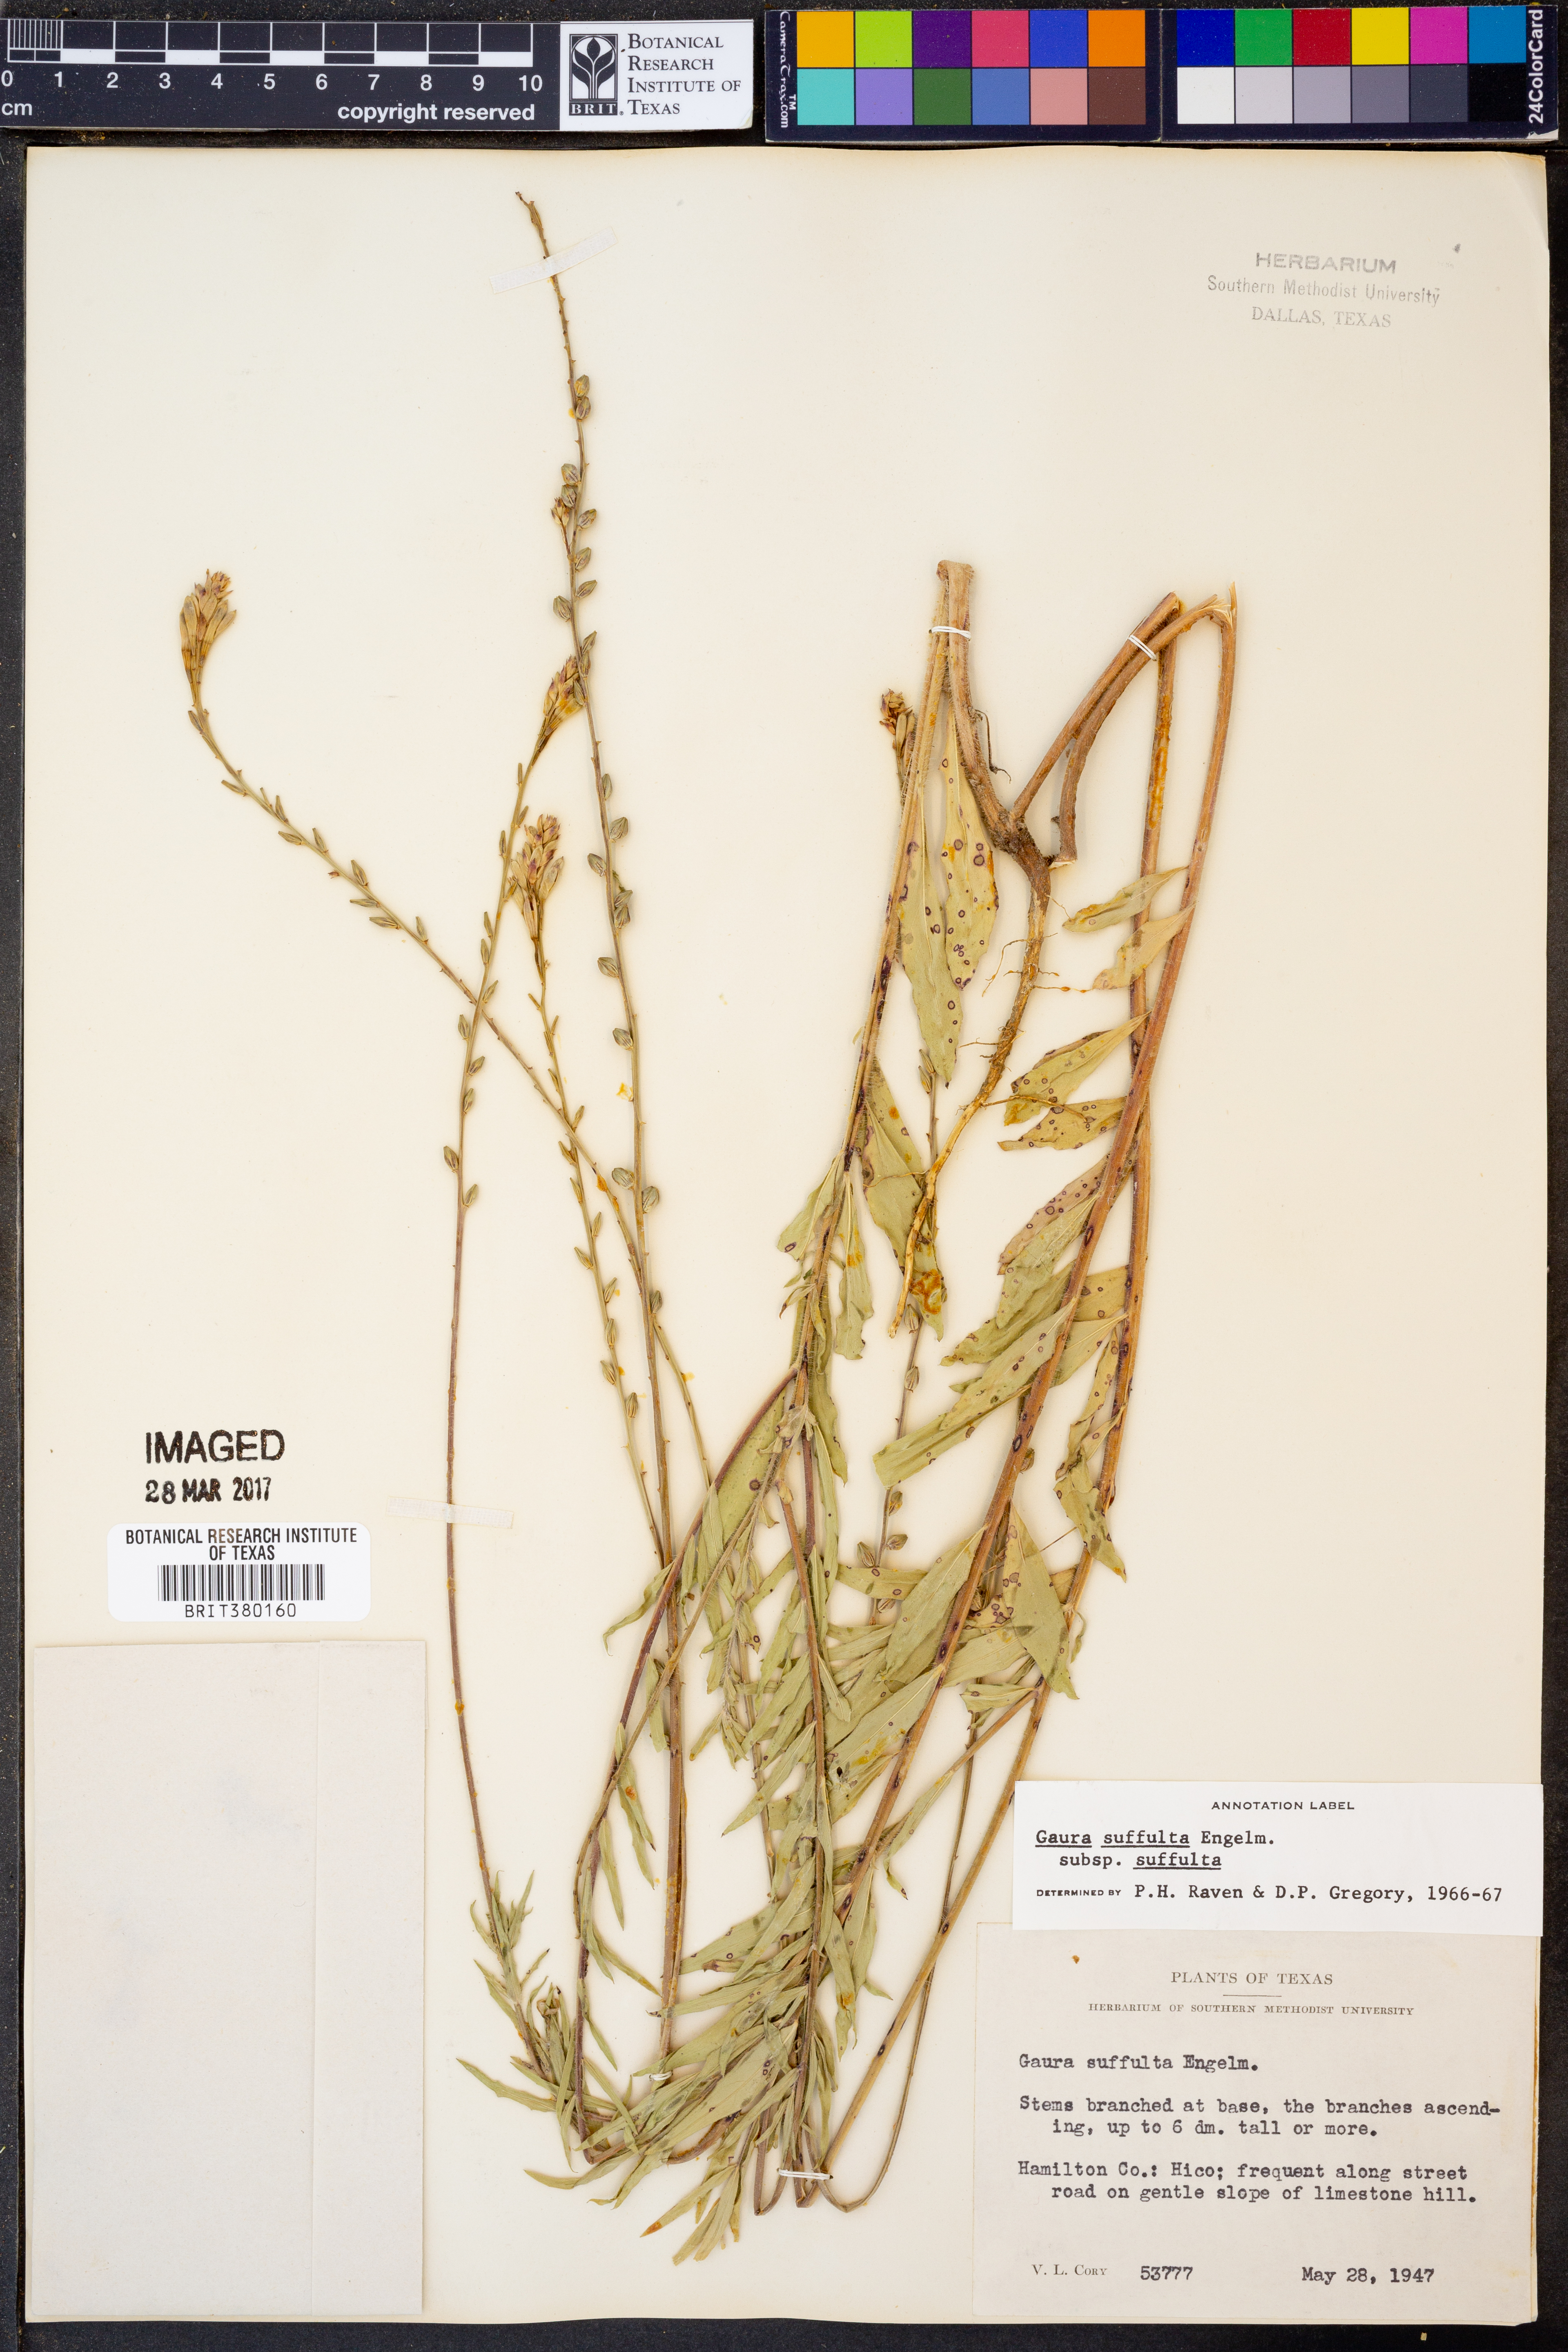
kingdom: Plantae
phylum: Tracheophyta
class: Magnoliopsida
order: Myrtales
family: Onagraceae
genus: Oenothera
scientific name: Oenothera suffulta
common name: Kisses
